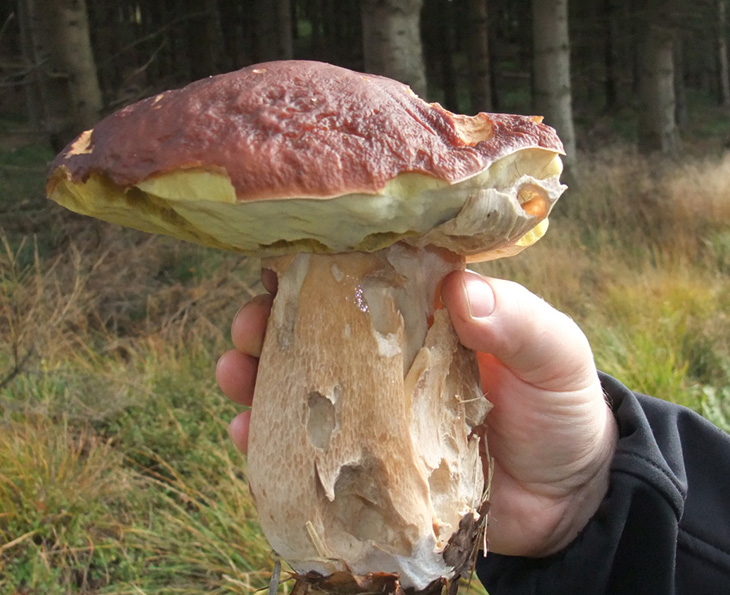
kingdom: Fungi
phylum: Basidiomycota
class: Agaricomycetes
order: Boletales
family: Boletaceae
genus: Boletus
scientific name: Boletus edulis
